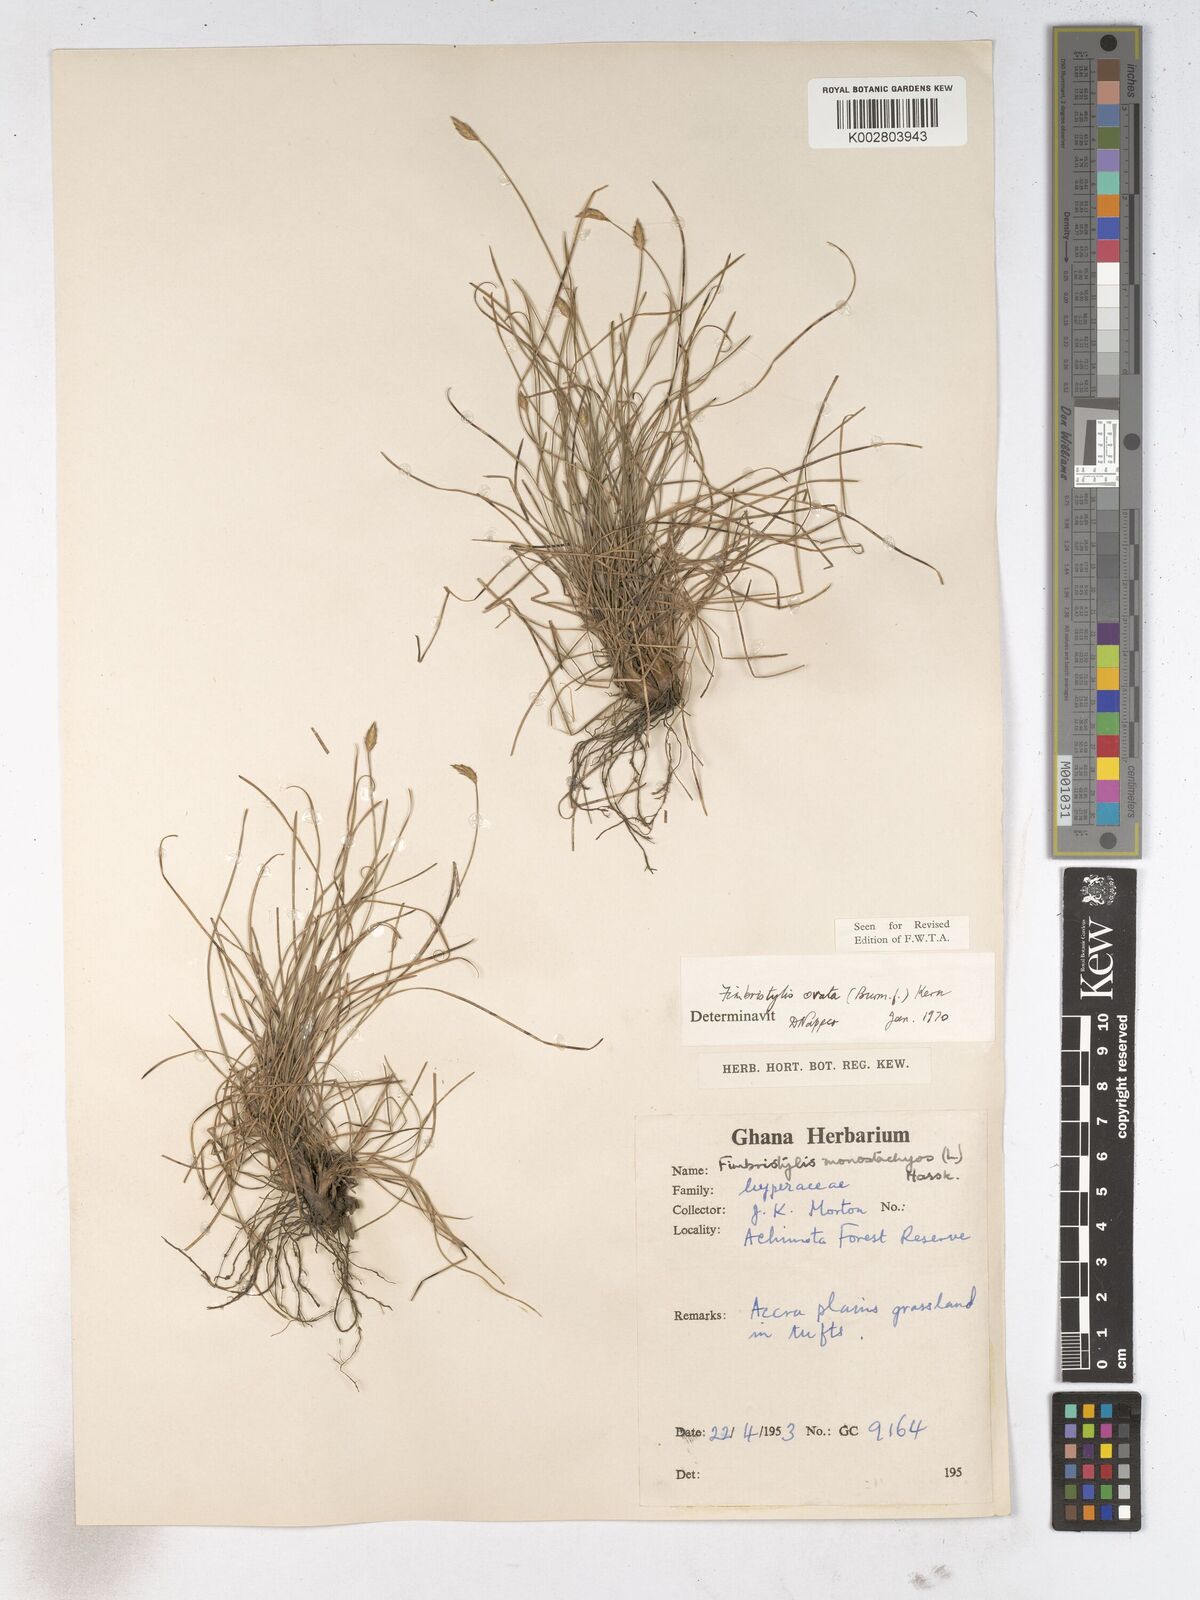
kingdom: Plantae
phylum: Tracheophyta
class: Liliopsida
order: Poales
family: Cyperaceae
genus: Abildgaardia
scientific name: Abildgaardia ovata
